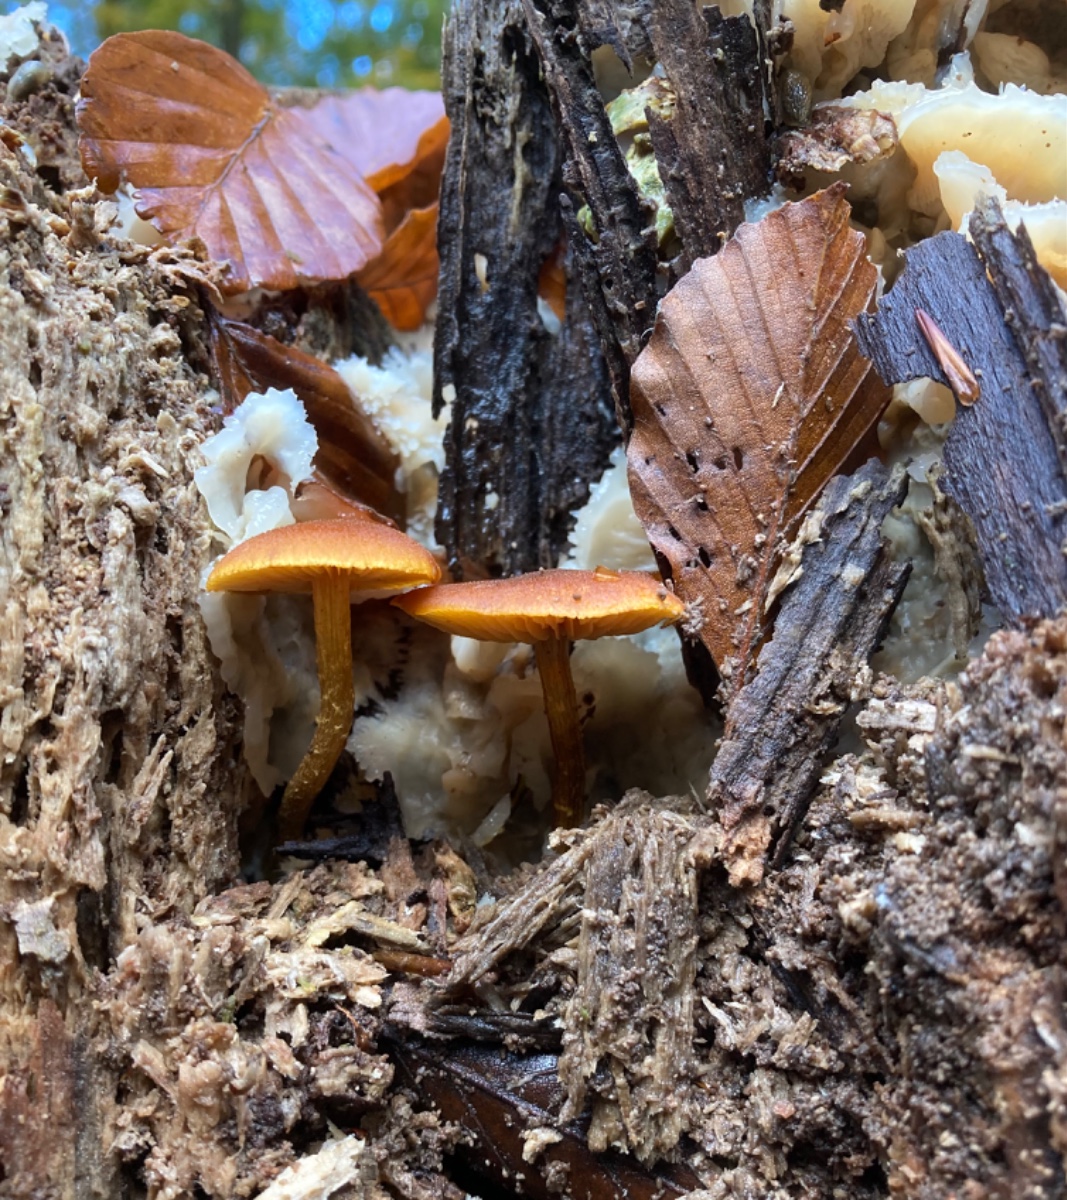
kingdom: Fungi
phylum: Basidiomycota
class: Agaricomycetes
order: Agaricales
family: Tubariaceae
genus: Flammulaster
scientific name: Flammulaster limulatus
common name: gylden grynskælhat
